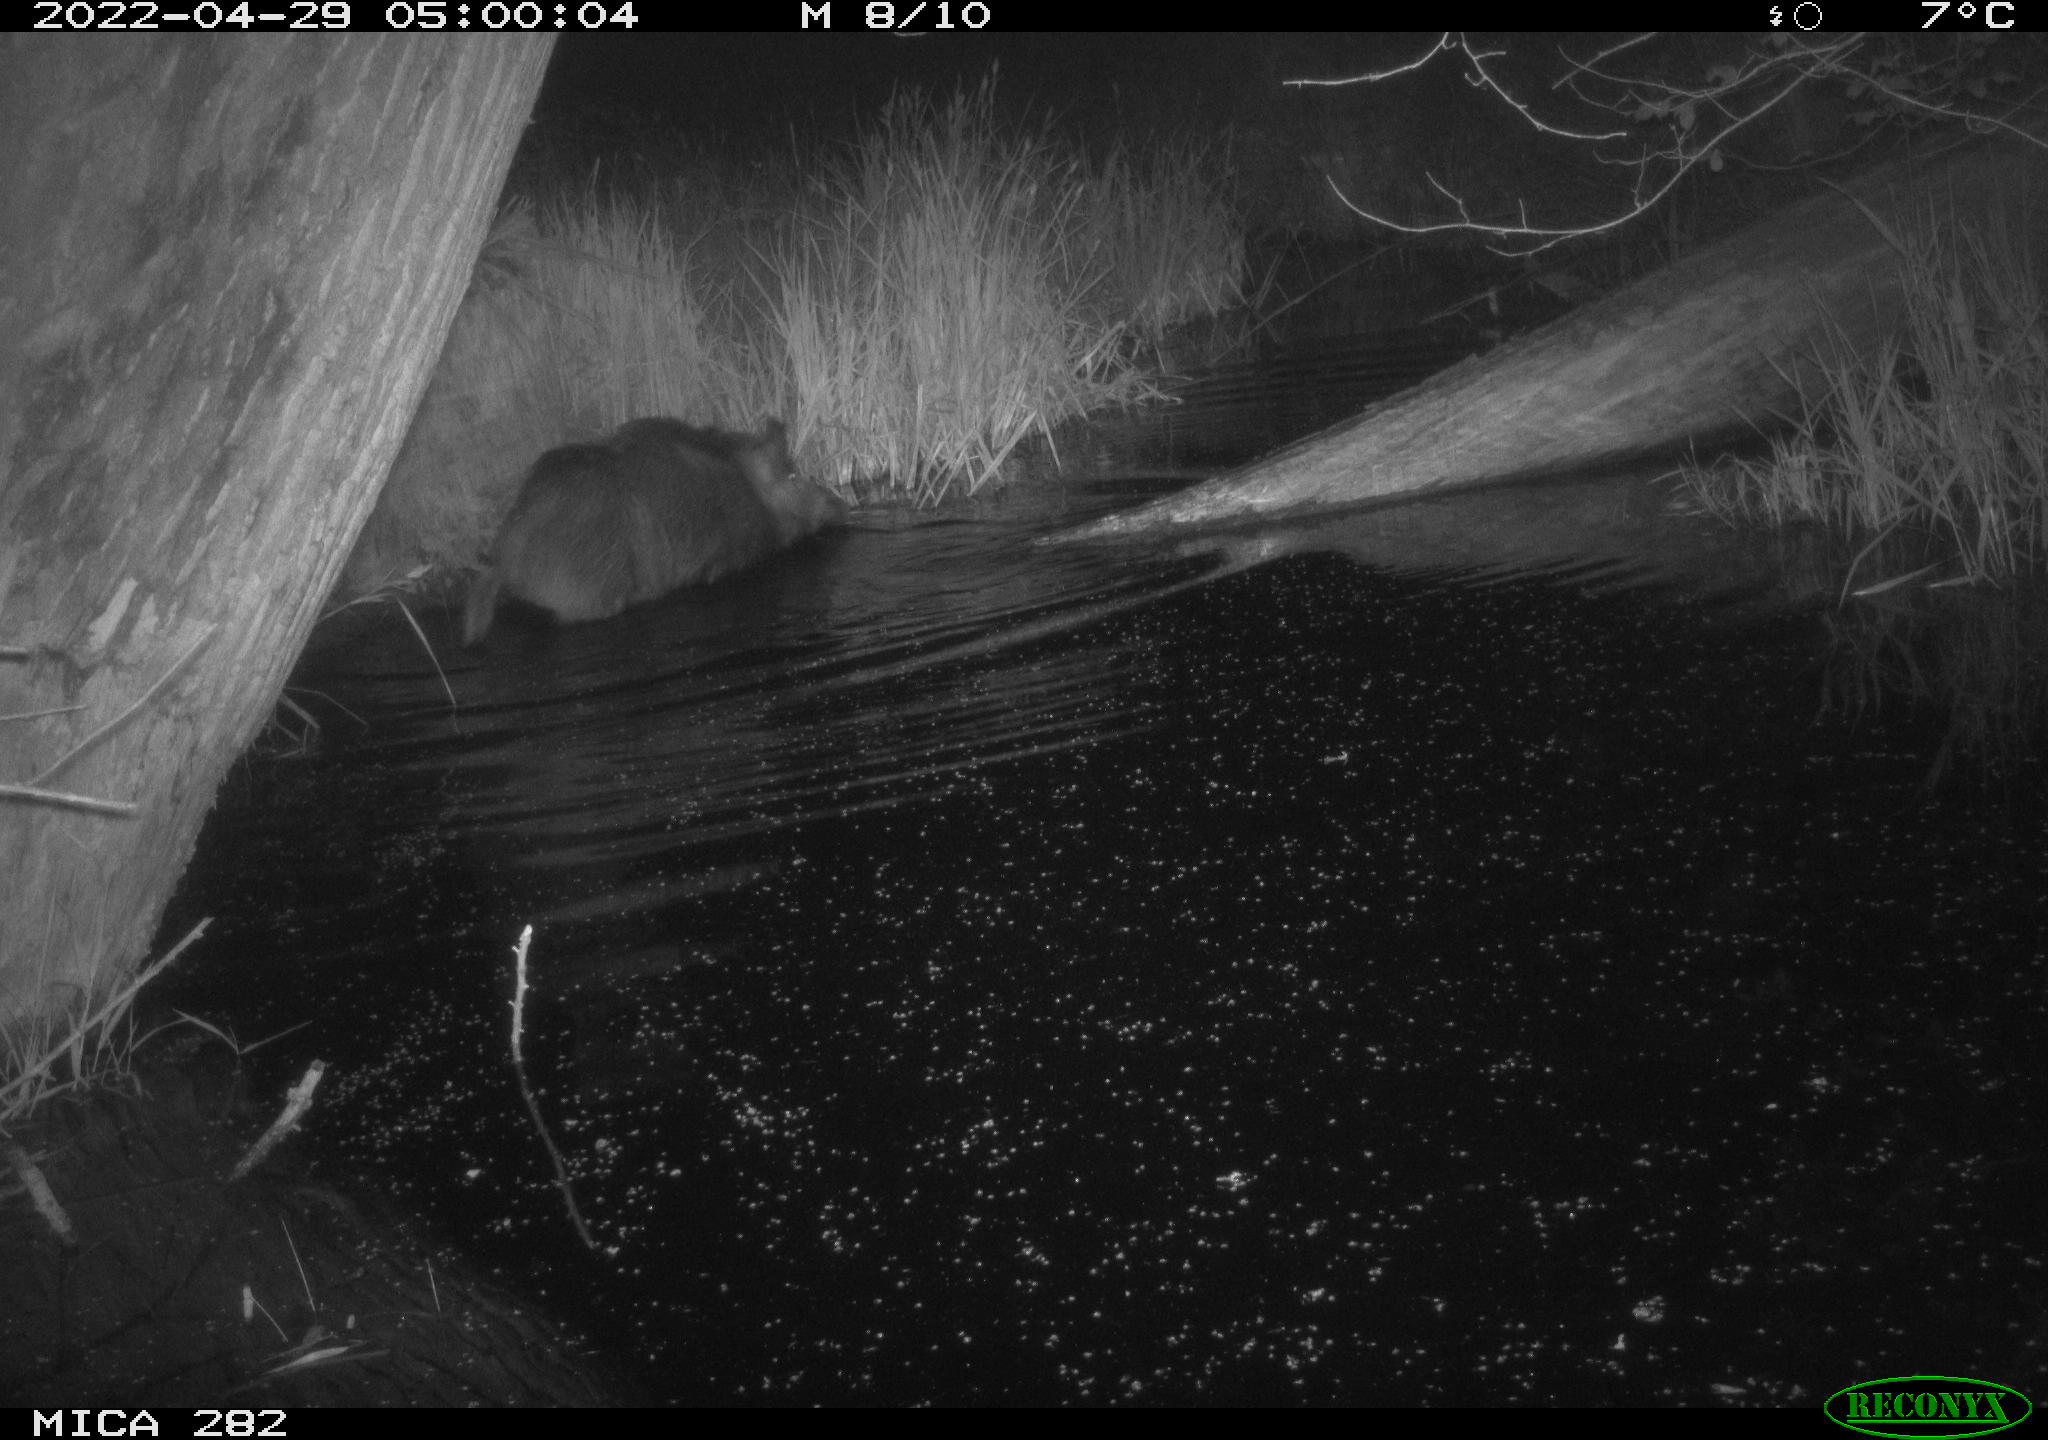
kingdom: Animalia
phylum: Chordata
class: Mammalia
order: Artiodactyla
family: Suidae
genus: Sus
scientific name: Sus scrofa
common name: Wild boar
